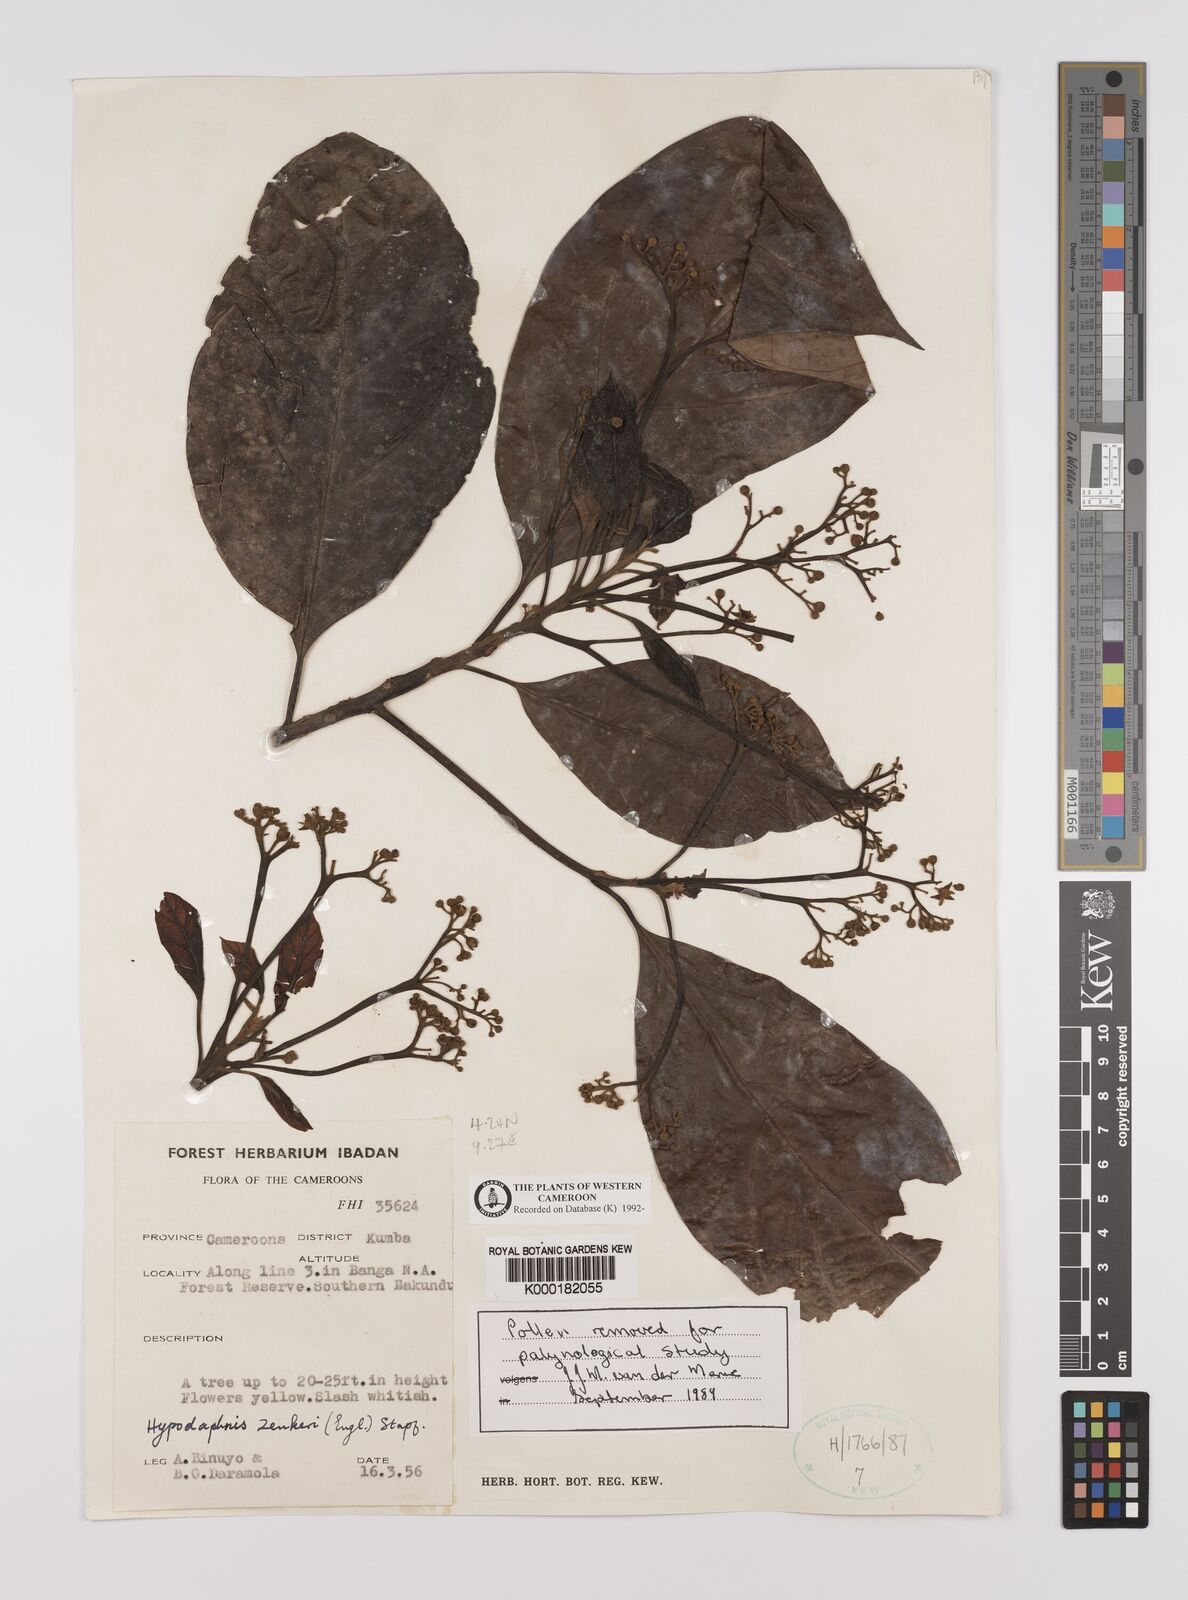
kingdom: Plantae
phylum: Tracheophyta
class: Magnoliopsida
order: Laurales
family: Lauraceae
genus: Hypodaphnis
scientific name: Hypodaphnis zenkeri
